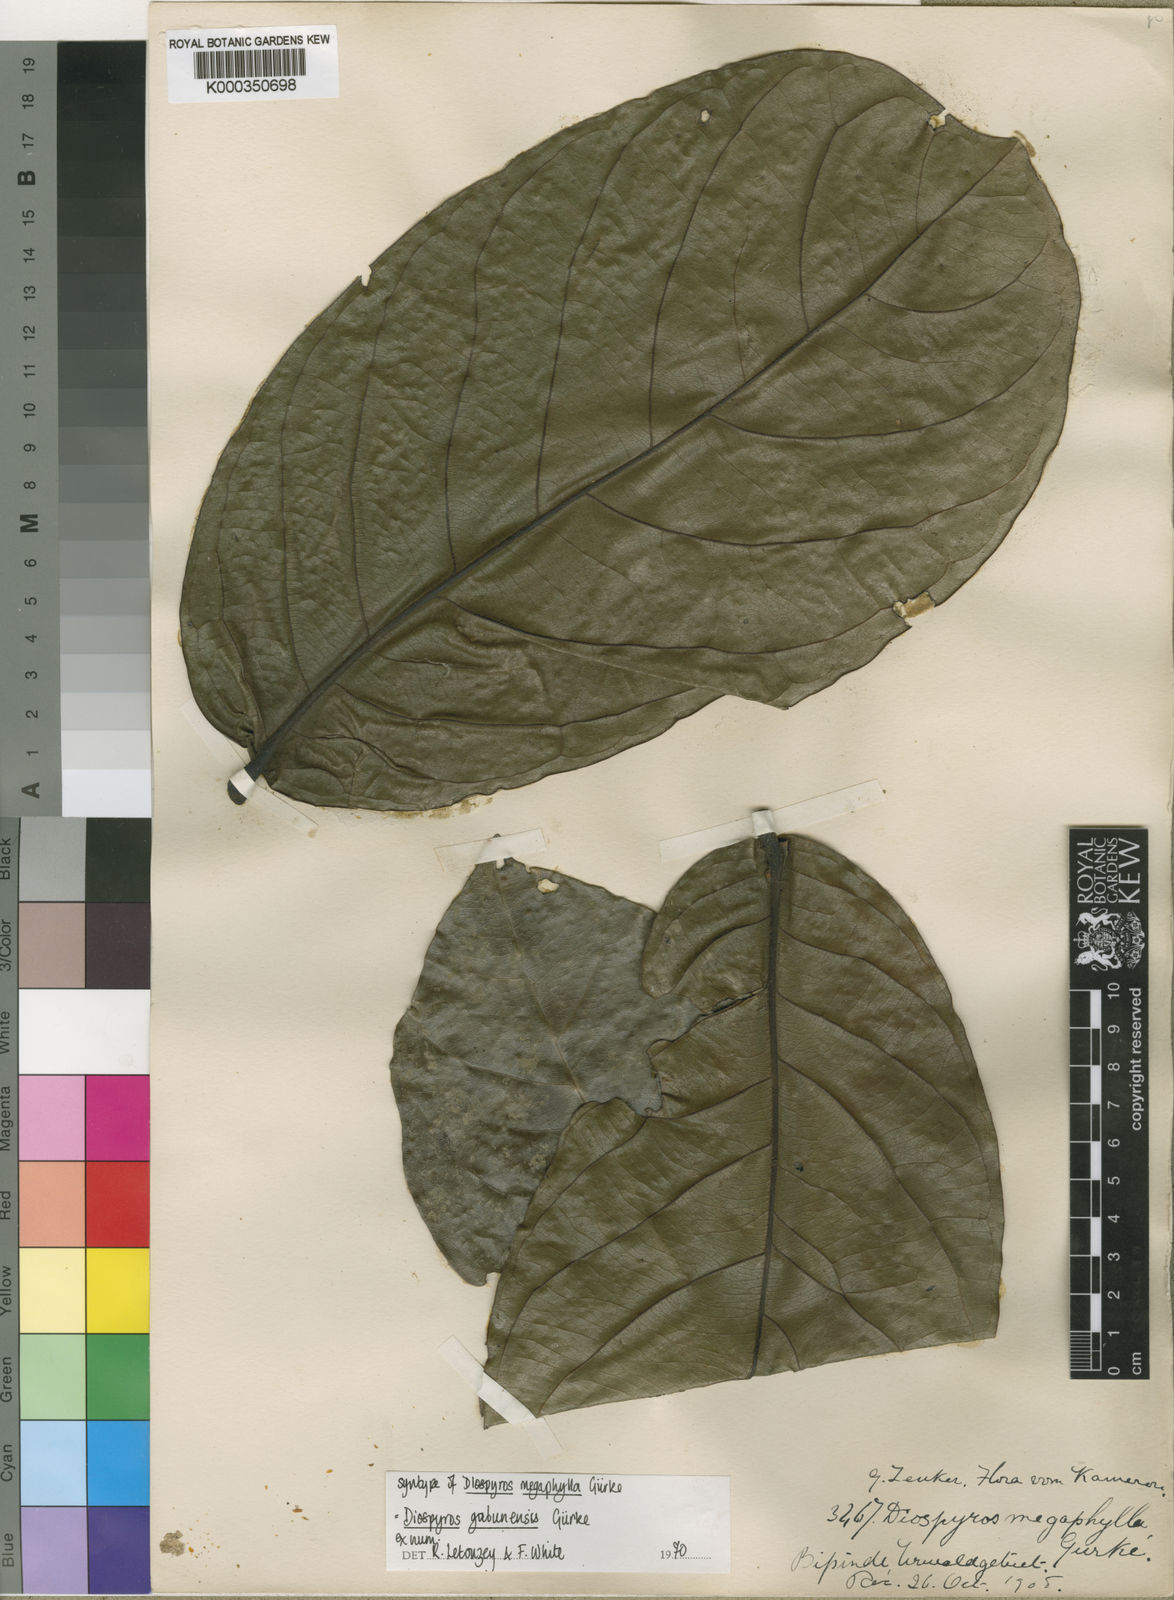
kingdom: Plantae
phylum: Tracheophyta
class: Magnoliopsida
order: Ericales
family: Ebenaceae
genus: Diospyros
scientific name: Diospyros
